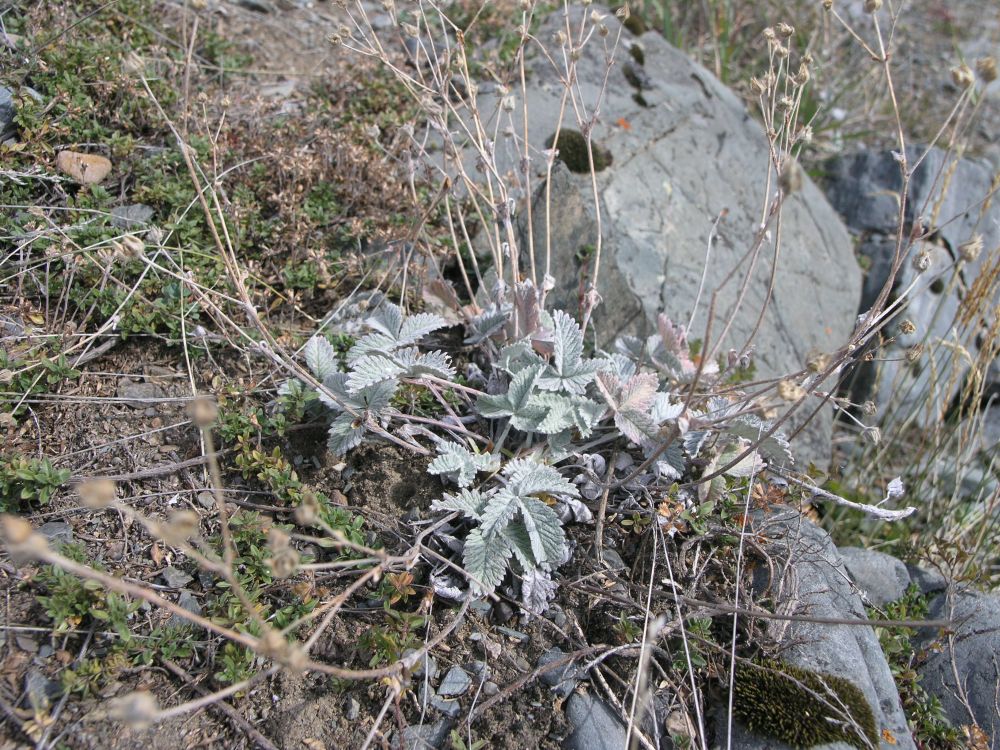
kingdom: Plantae
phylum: Tracheophyta
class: Magnoliopsida
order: Rosales
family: Rosaceae
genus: Potentilla
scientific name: Potentilla nivea
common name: Snow cinquefoil
